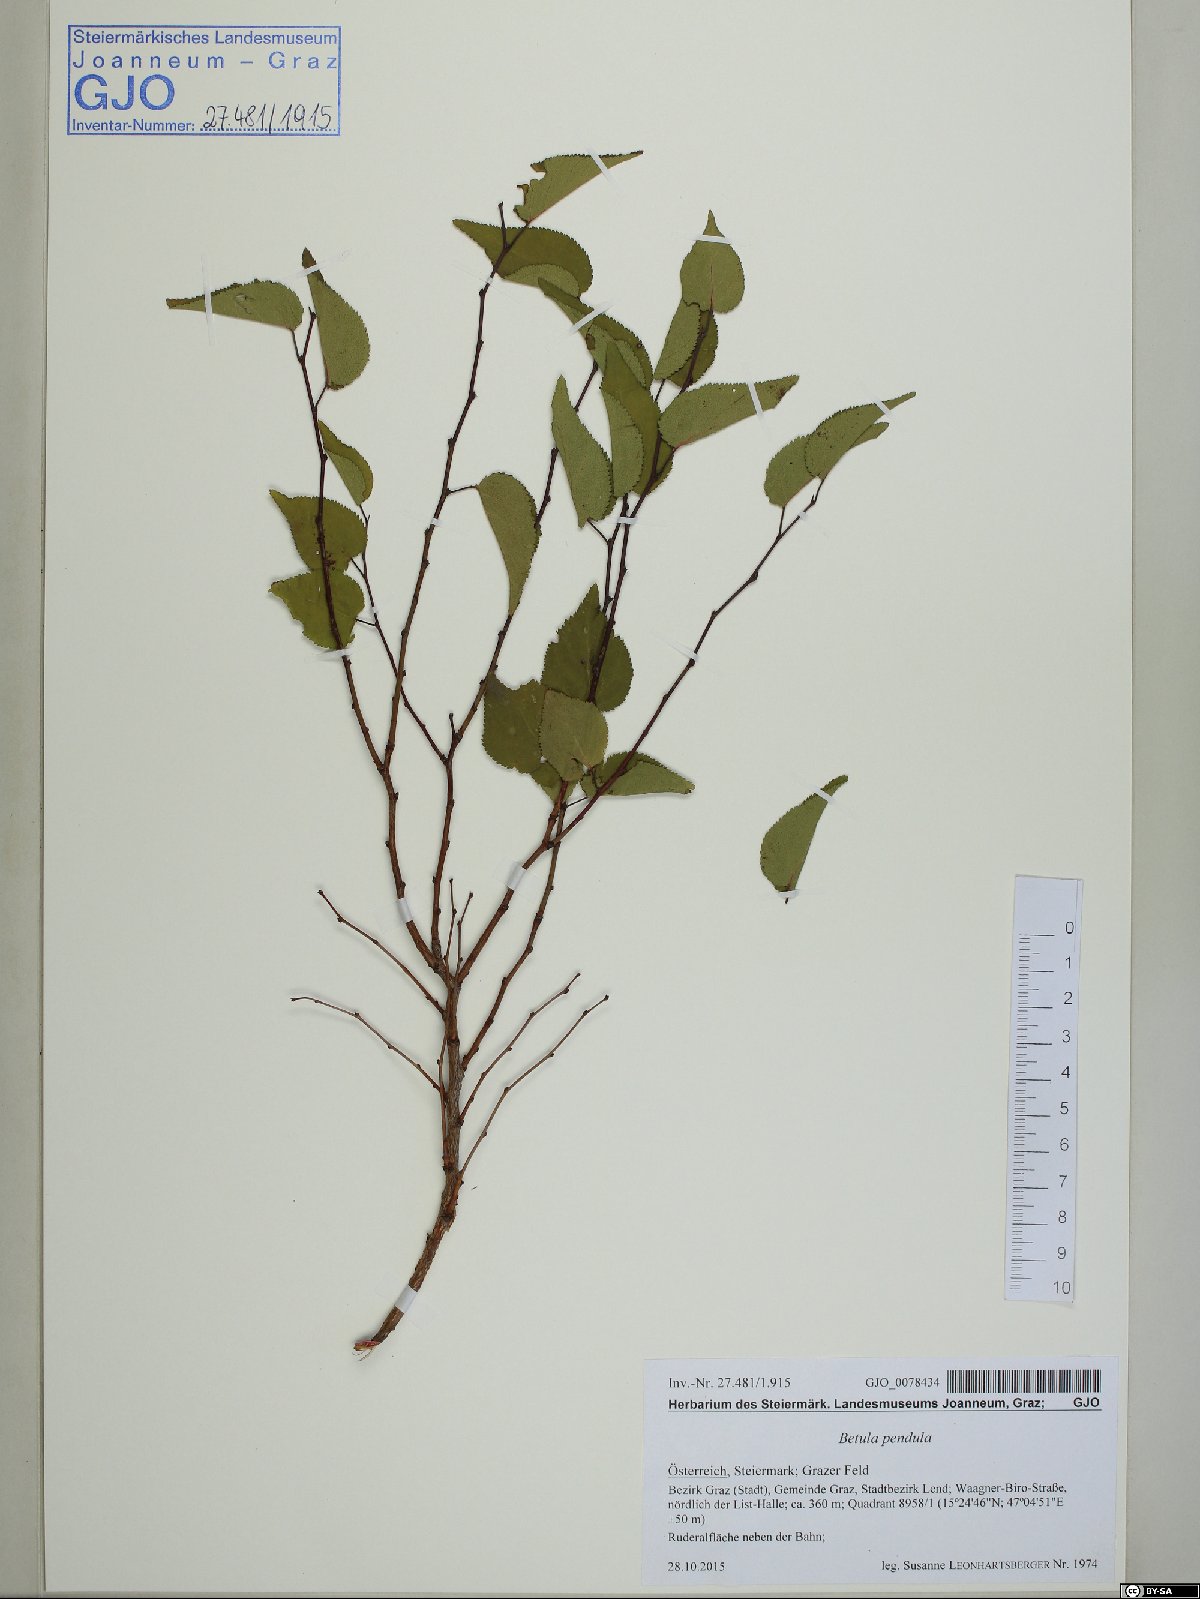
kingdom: Plantae
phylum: Tracheophyta
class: Magnoliopsida
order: Fagales
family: Betulaceae
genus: Betula
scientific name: Betula pendula
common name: Silver birch
